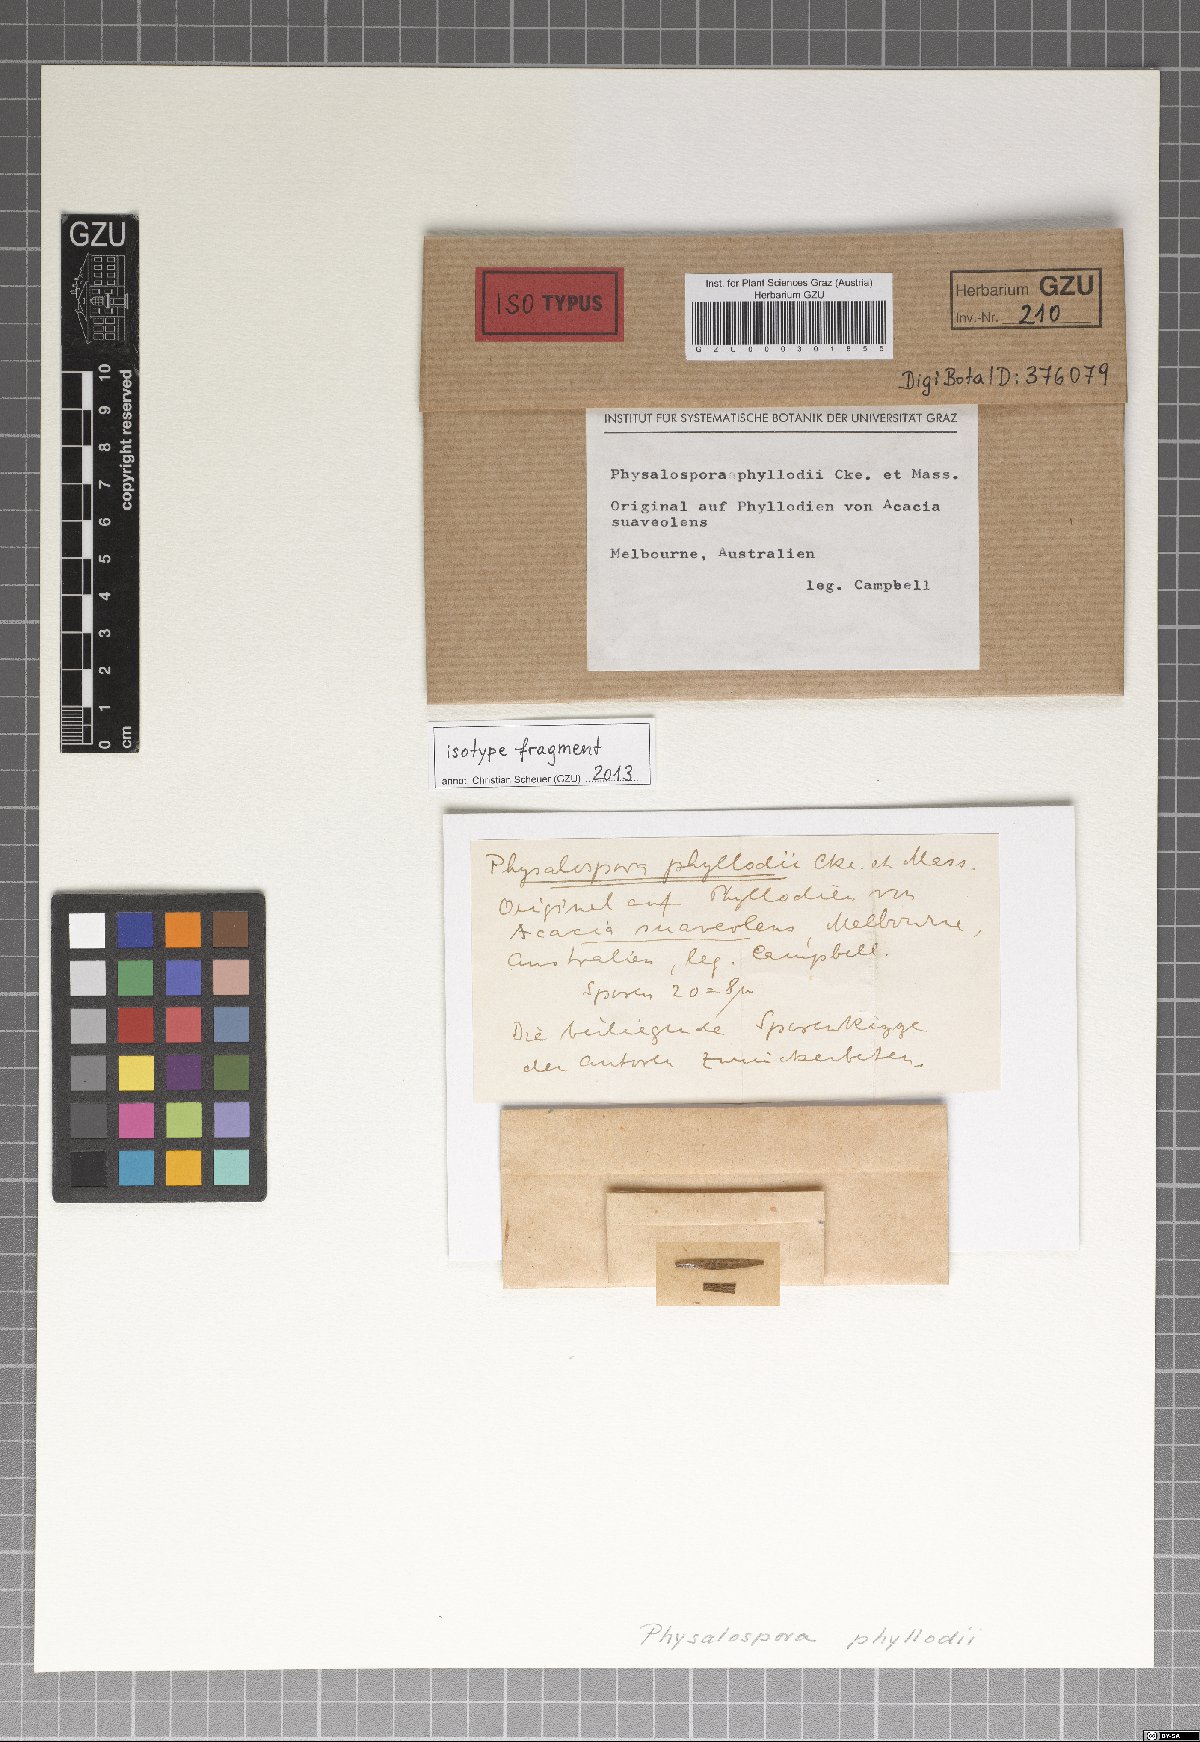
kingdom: Fungi
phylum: Ascomycota
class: Sordariomycetes
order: Phyllachorales
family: Phyllachoraceae
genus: Polystigma
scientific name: Polystigma phyllodii
